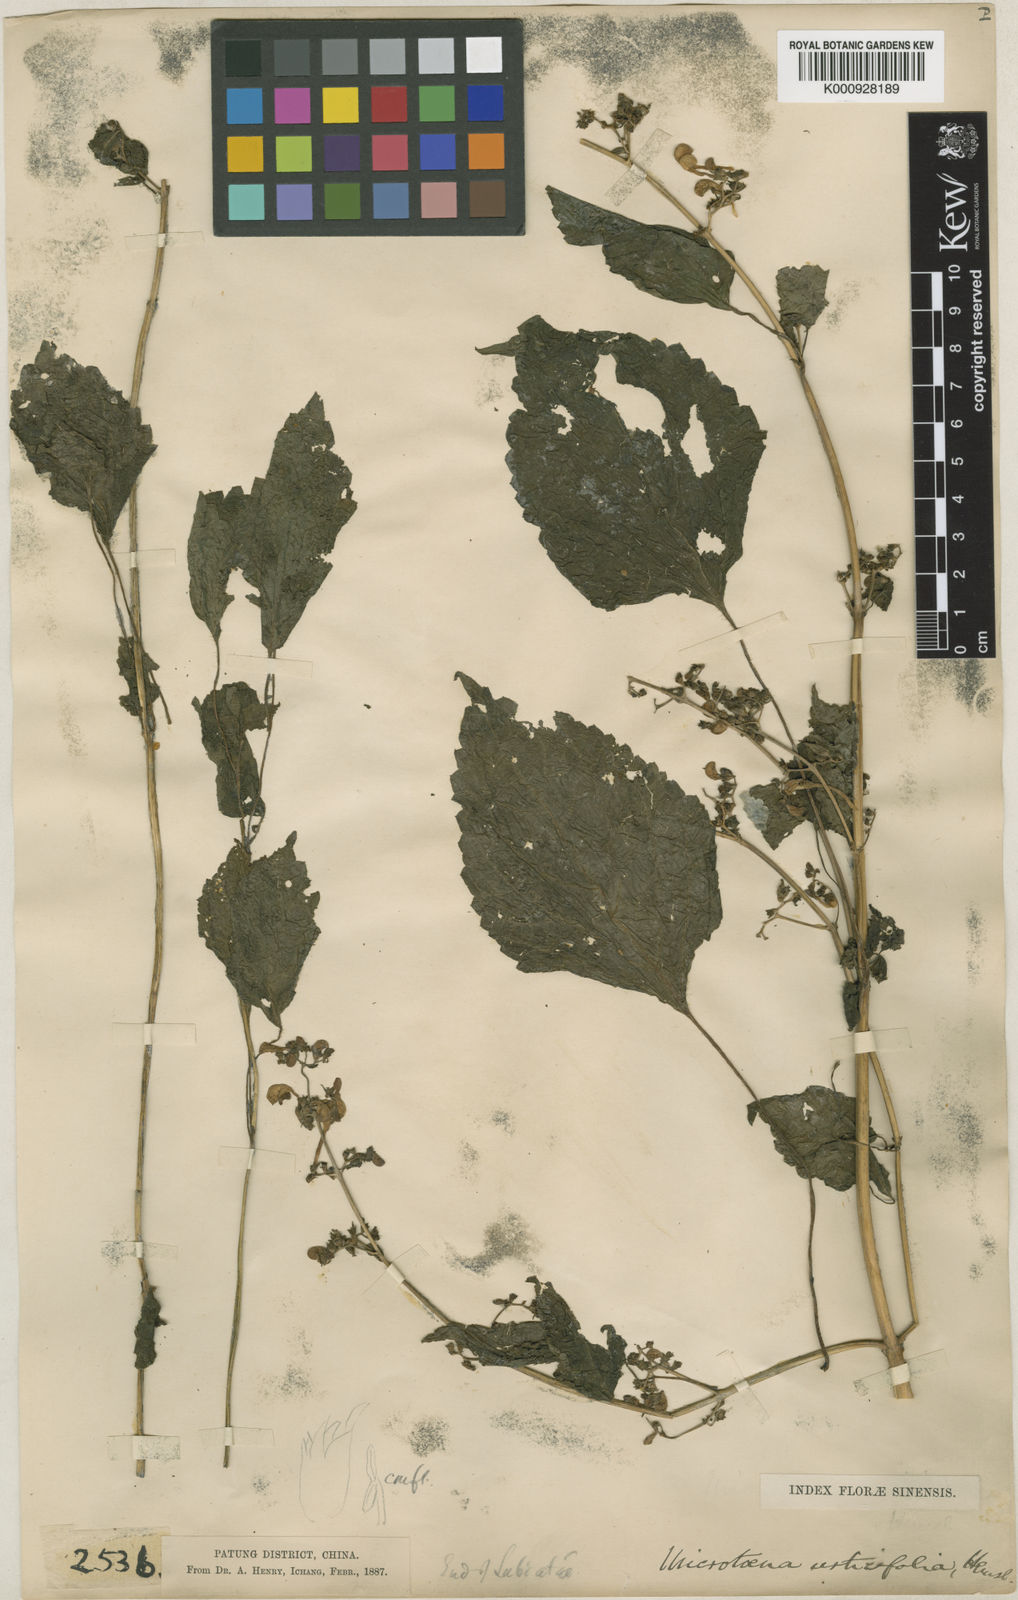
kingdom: Plantae
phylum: Tracheophyta
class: Magnoliopsida
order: Lamiales
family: Lamiaceae
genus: Microtoena
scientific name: Microtoena urticifolia
